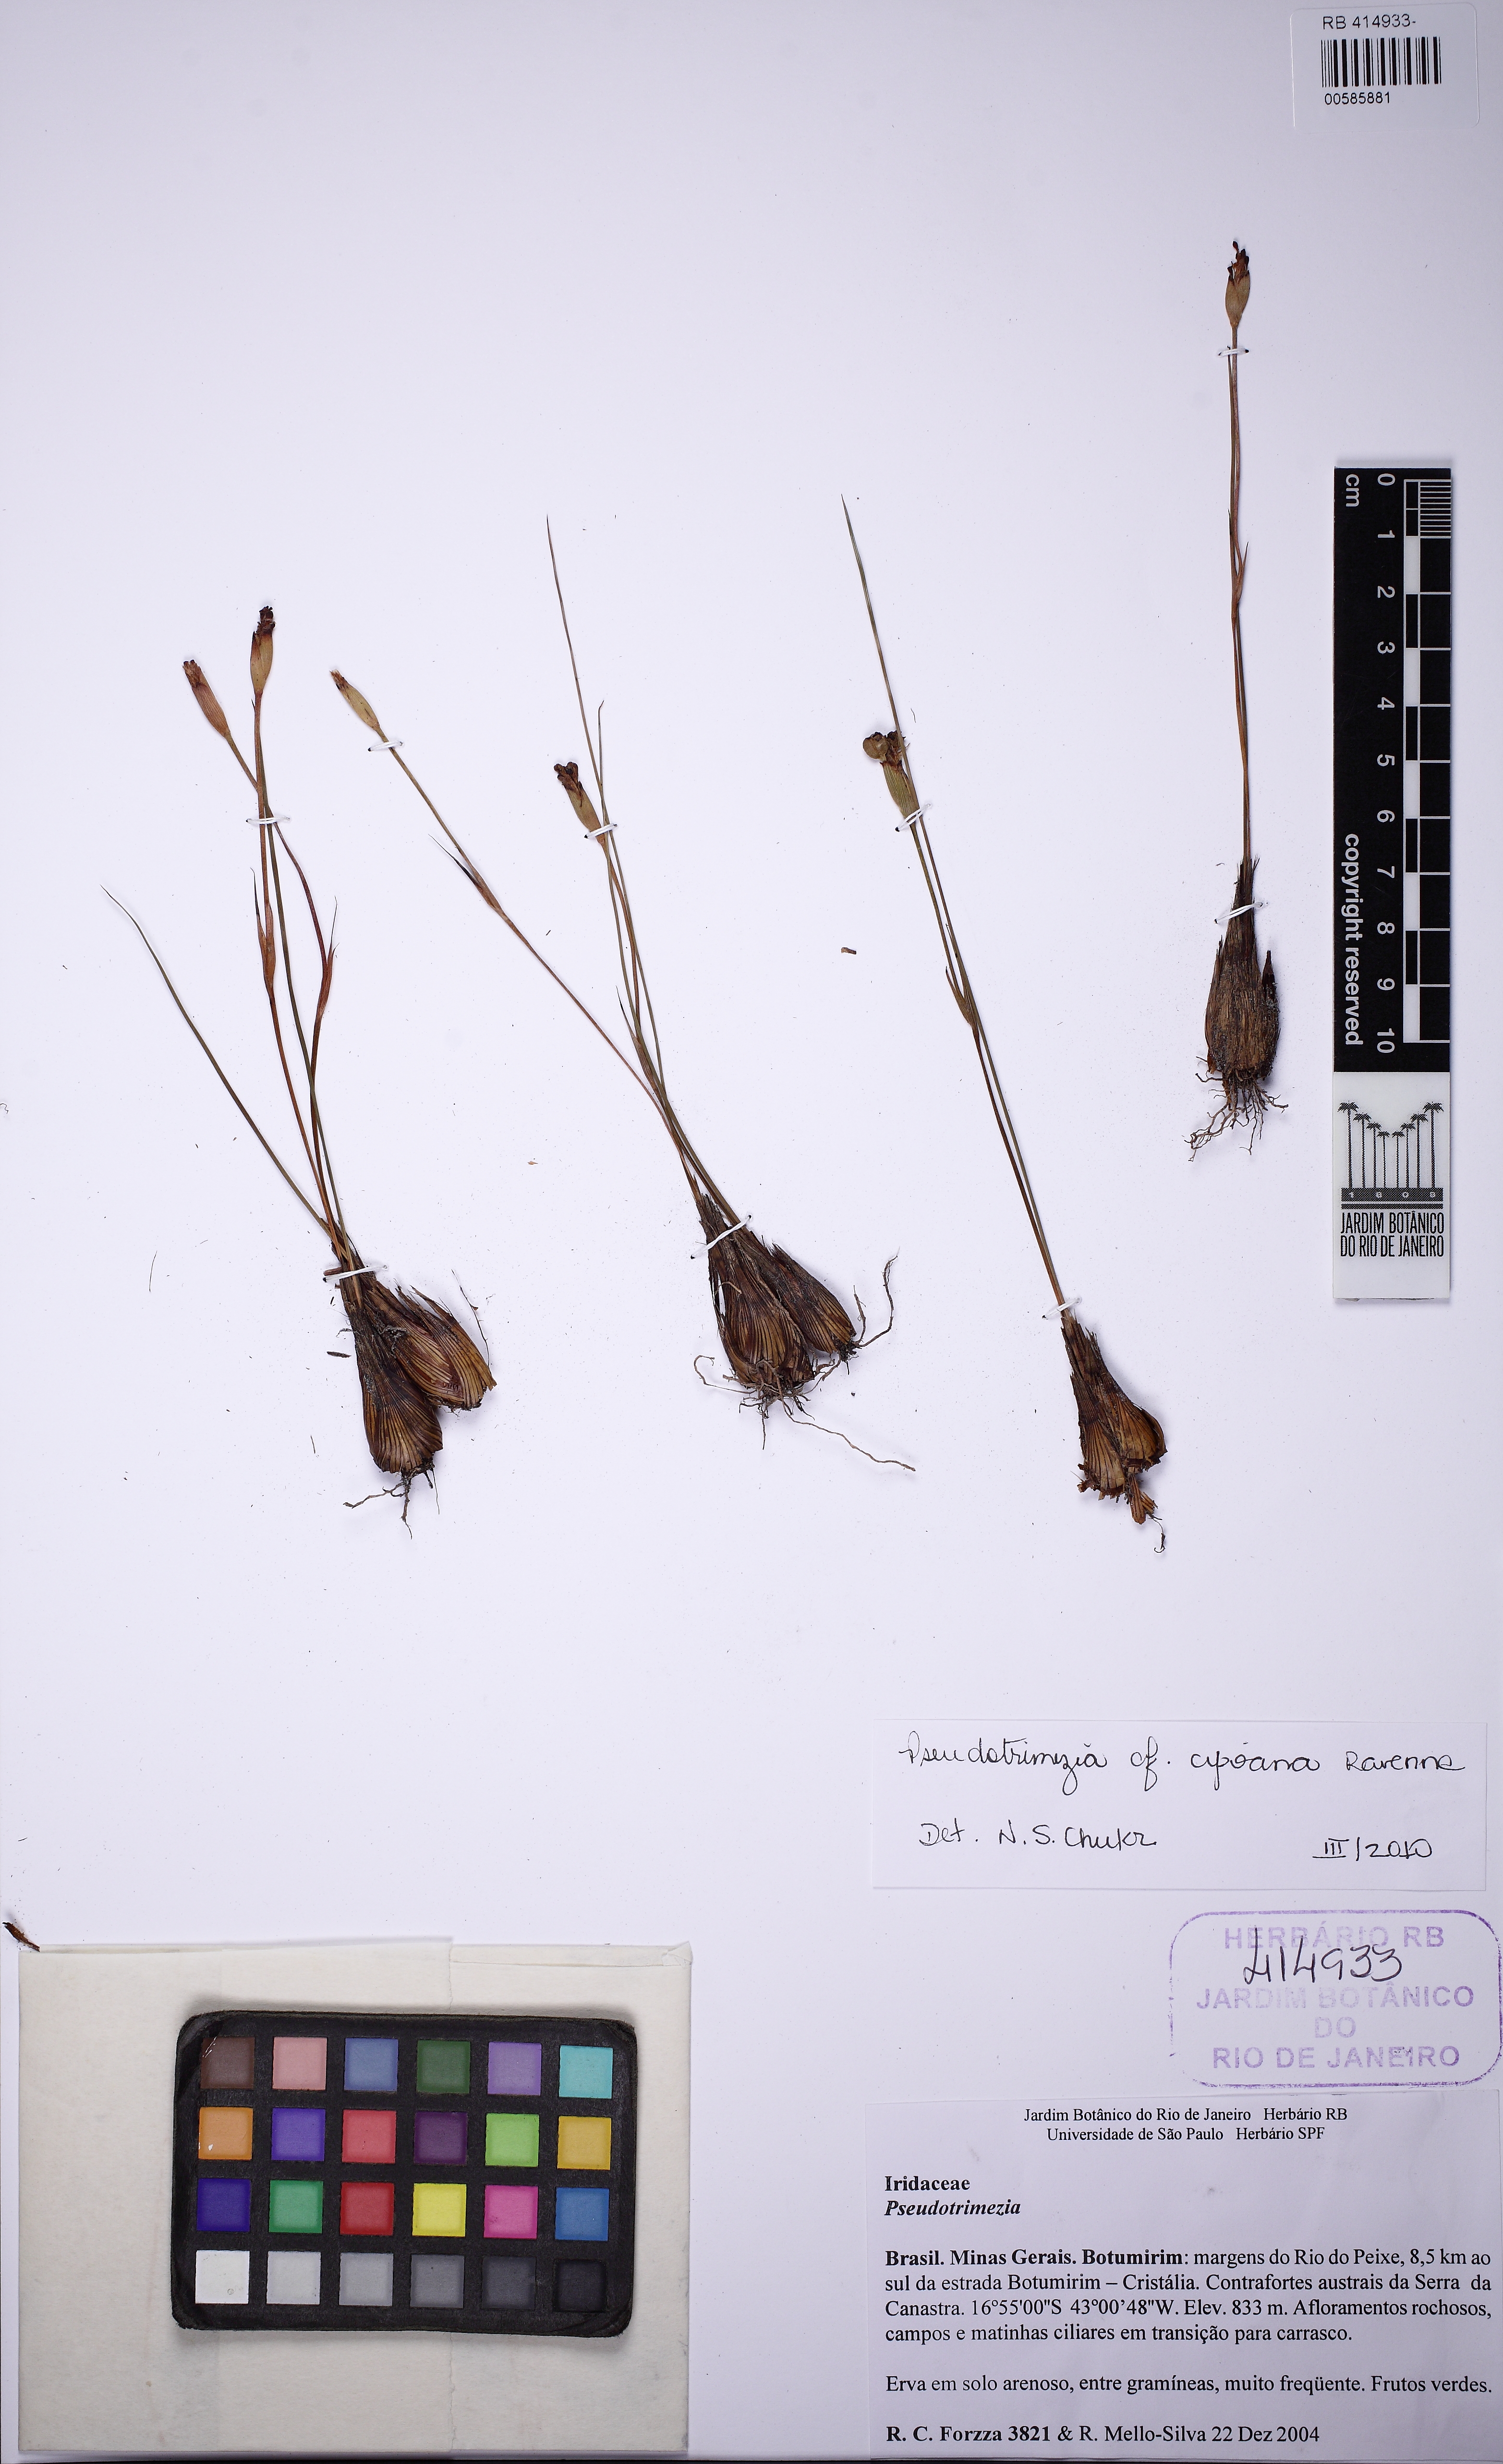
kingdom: Plantae
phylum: Tracheophyta
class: Liliopsida
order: Asparagales
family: Iridaceae
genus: Trimezia
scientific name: Trimezia cipoana
